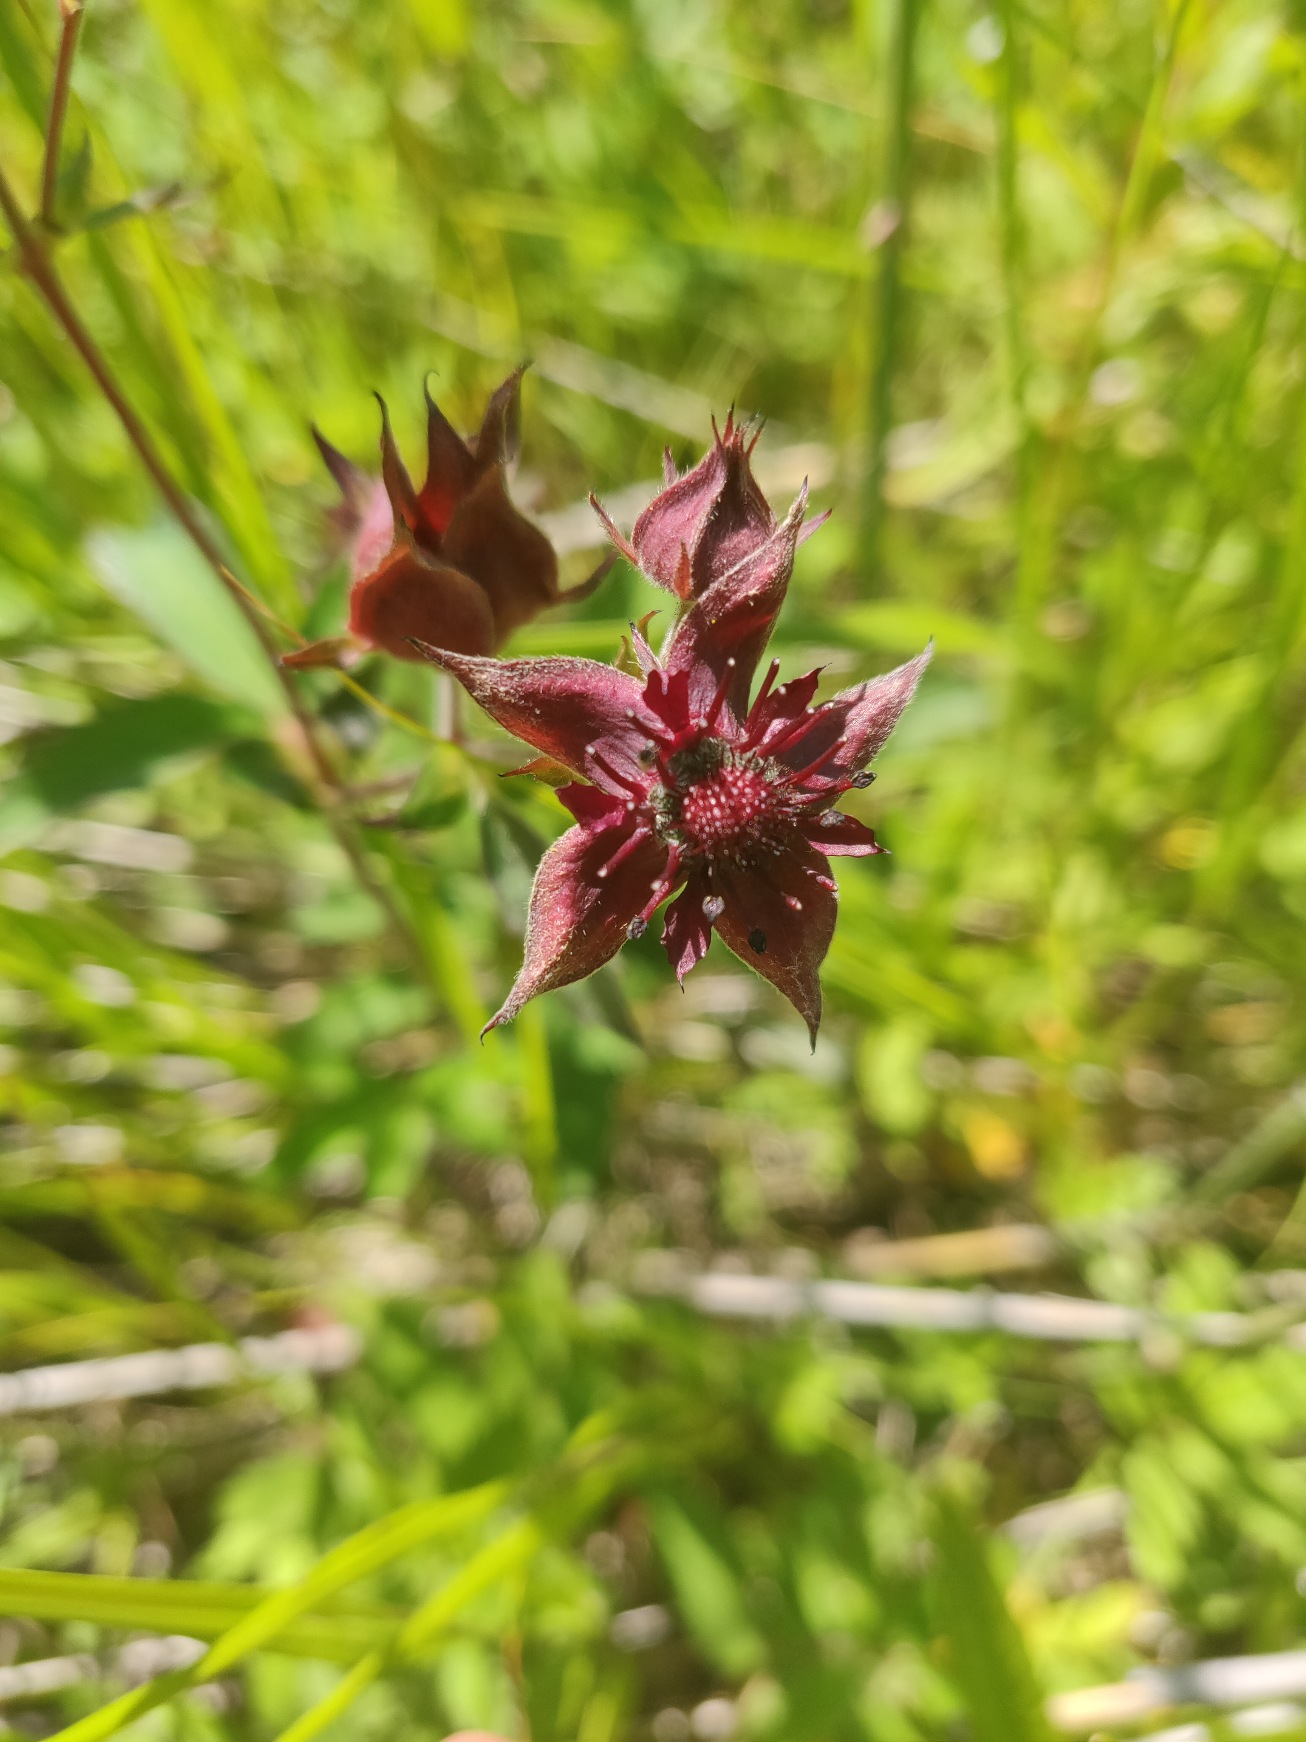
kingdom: Plantae
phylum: Tracheophyta
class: Magnoliopsida
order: Rosales
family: Rosaceae
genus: Comarum
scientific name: Comarum palustre
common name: Kragefod
